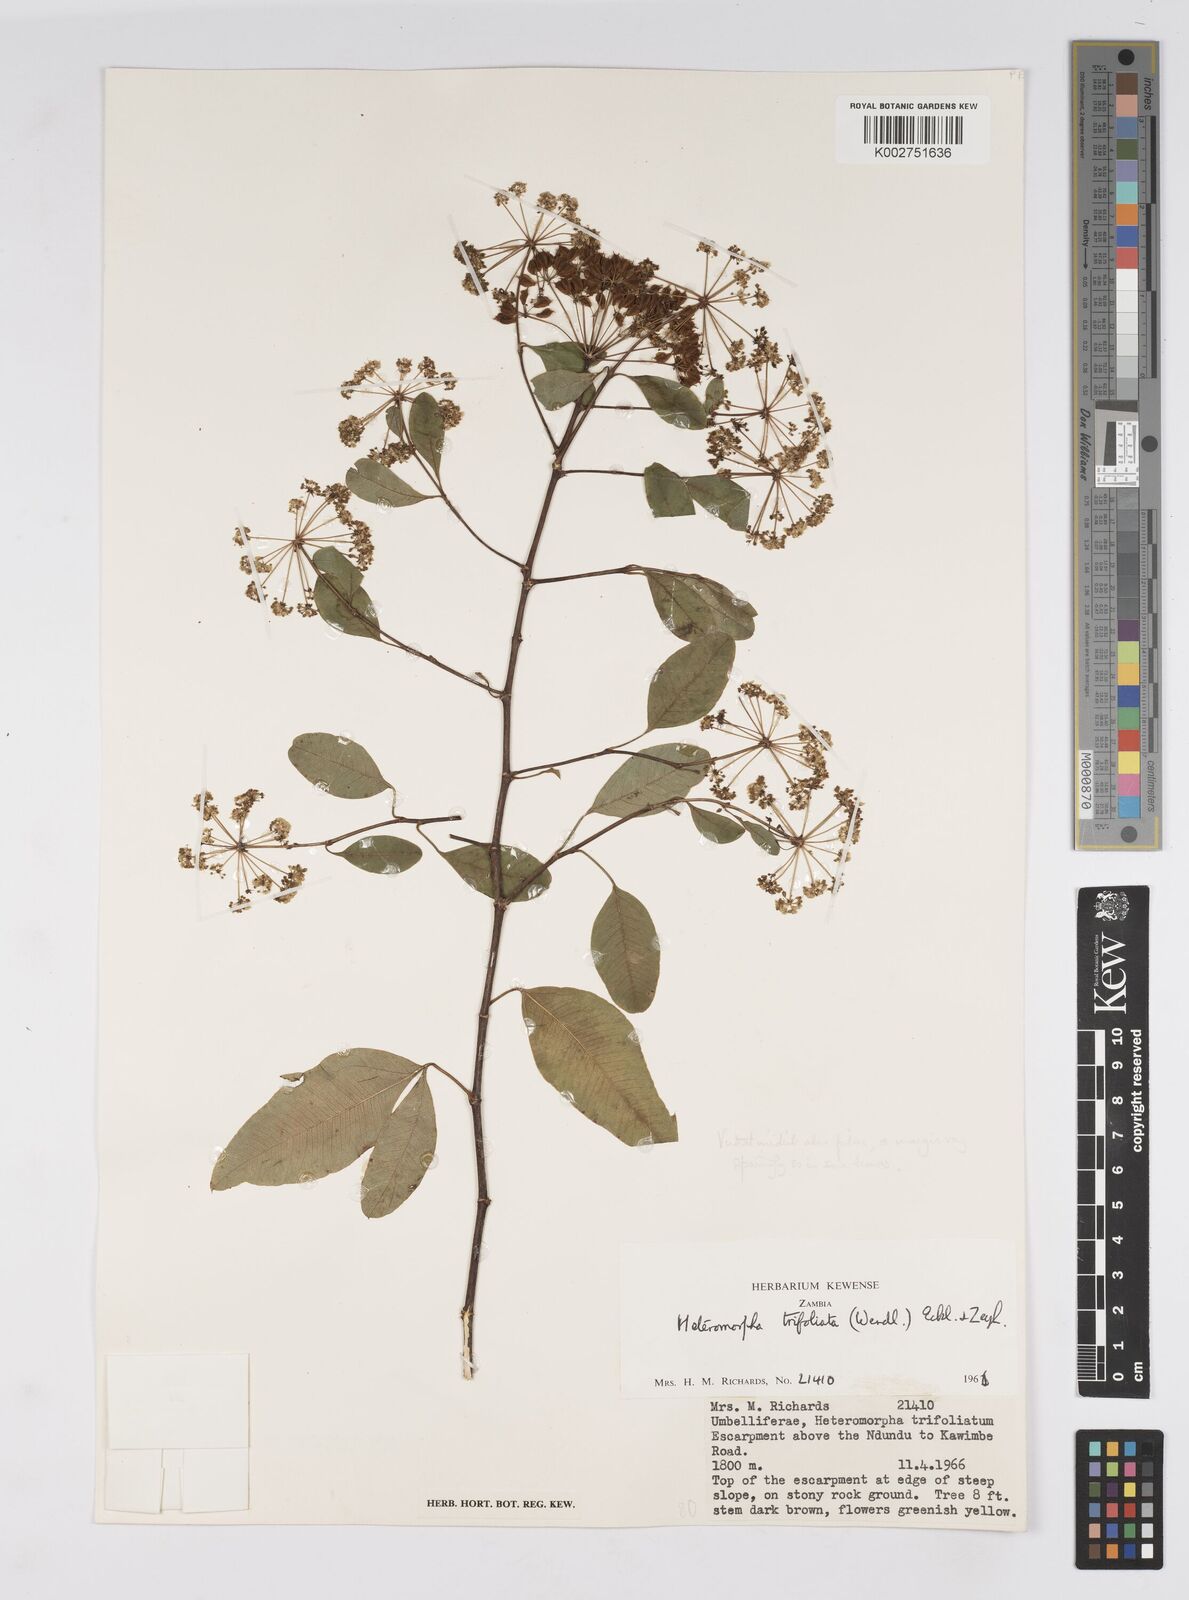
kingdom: Plantae
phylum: Tracheophyta
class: Magnoliopsida
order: Apiales
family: Apiaceae
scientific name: Apiaceae
